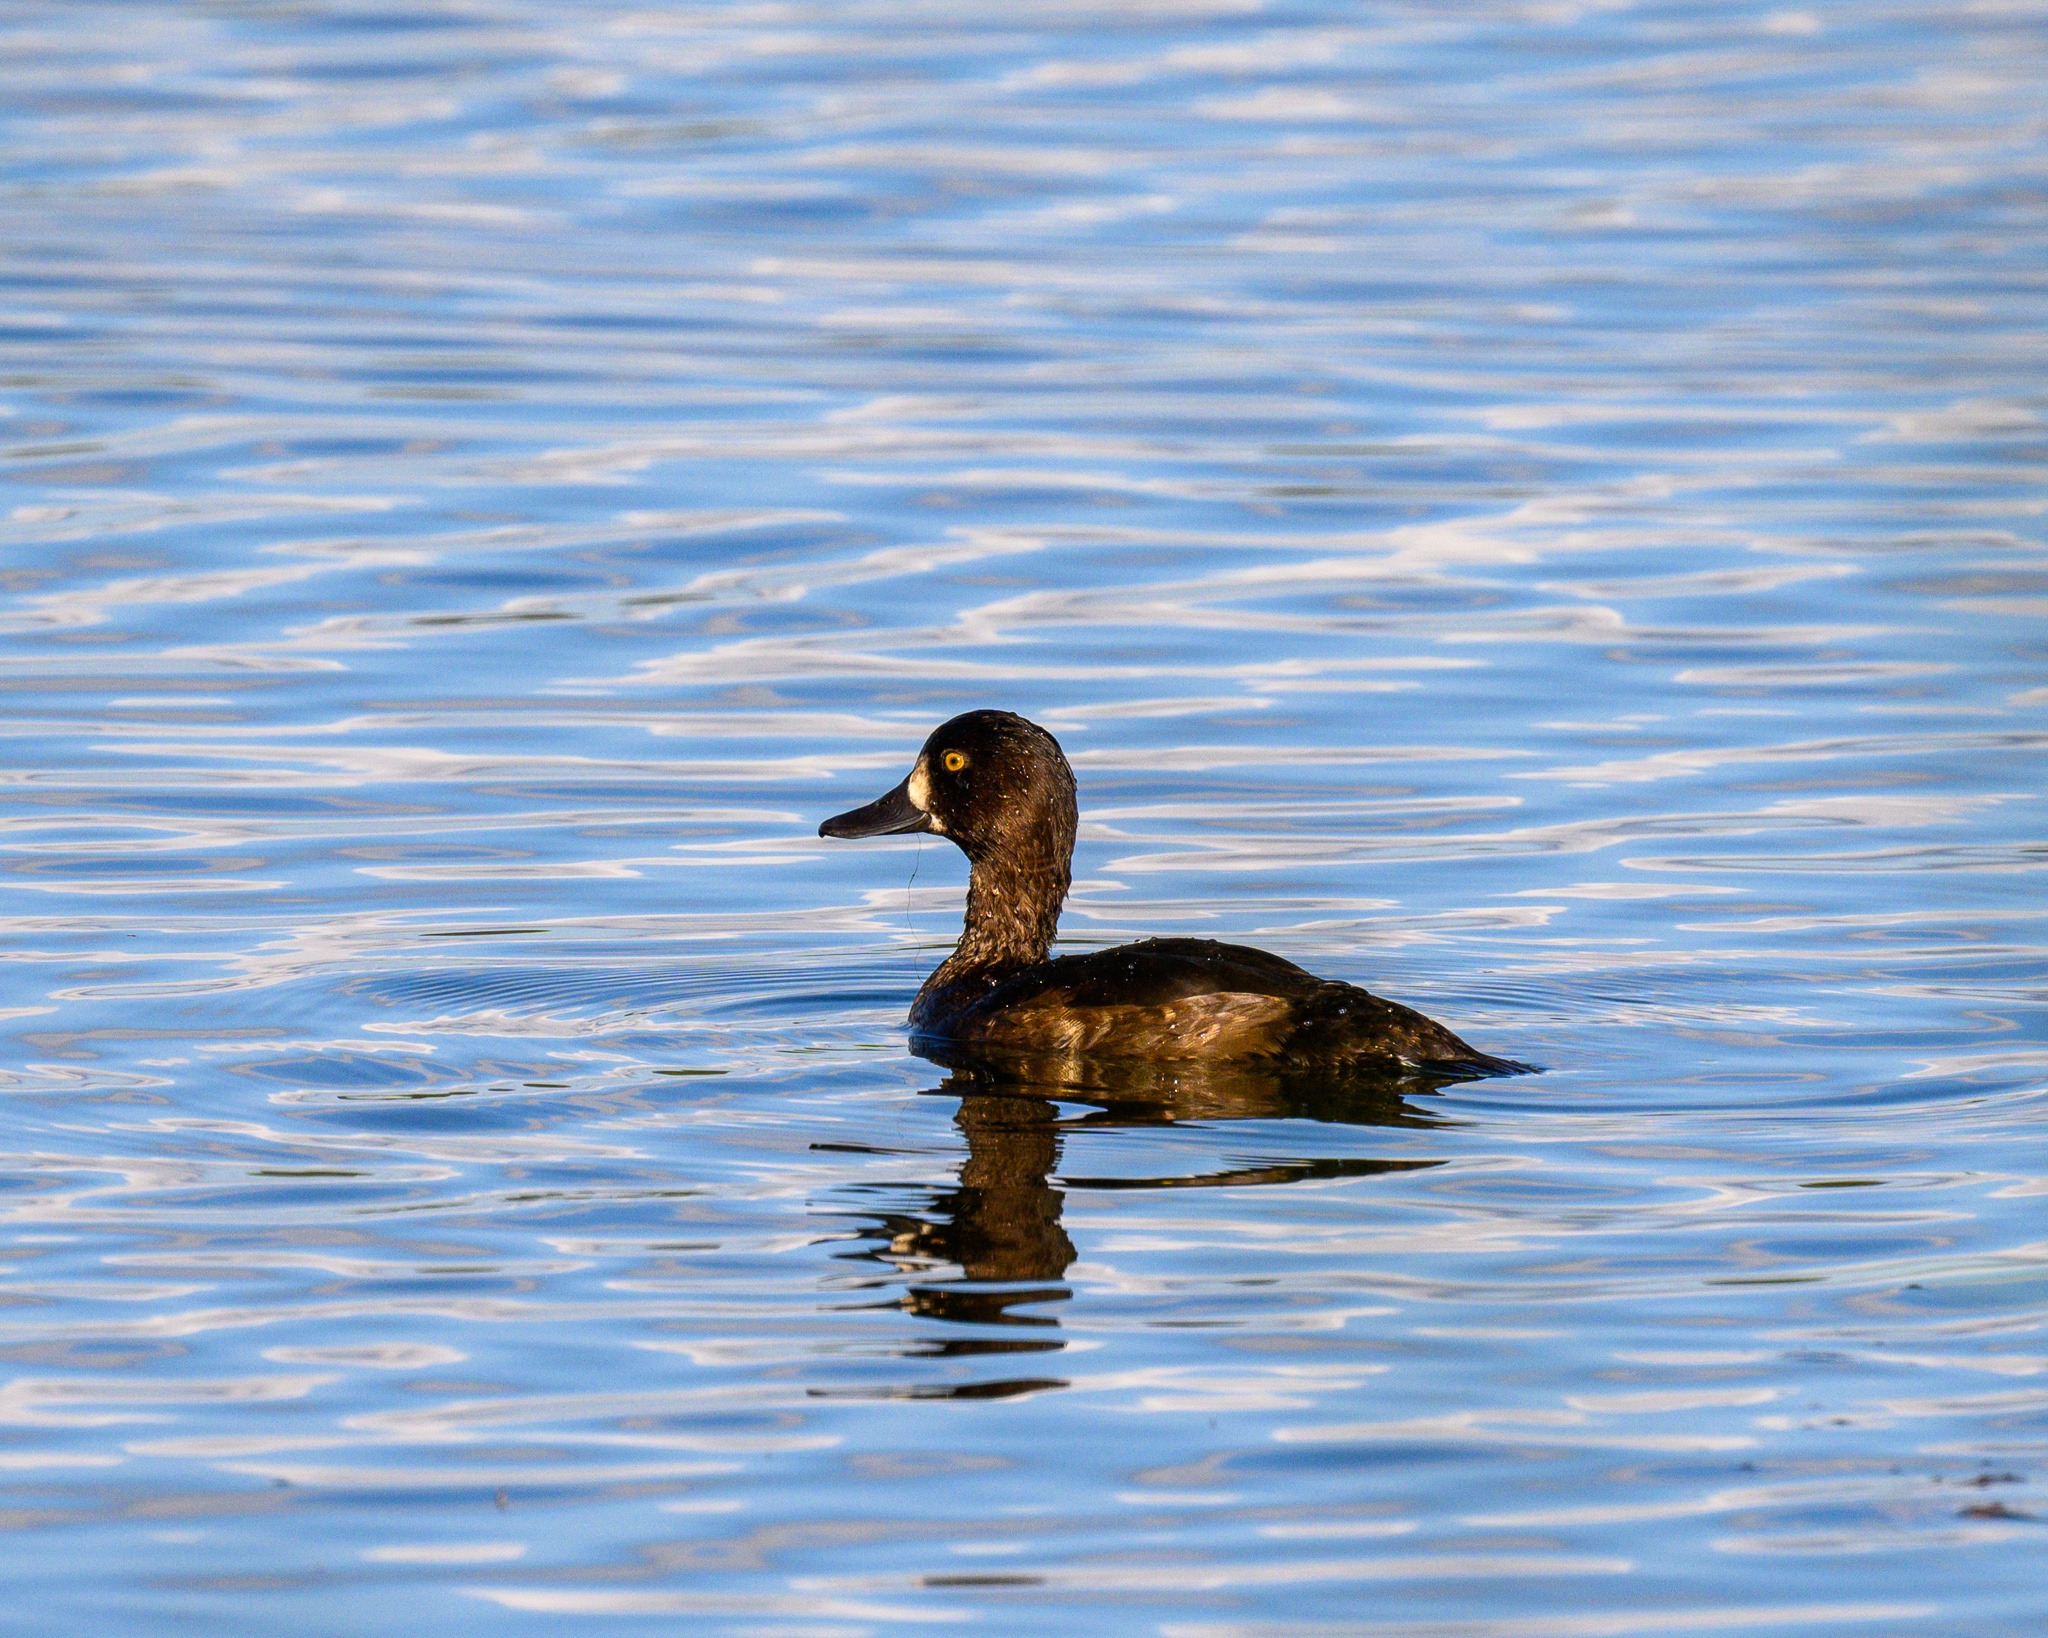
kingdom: Animalia
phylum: Chordata
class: Aves
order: Anseriformes
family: Anatidae
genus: Aythya
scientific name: Aythya fuligula
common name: Troldand
